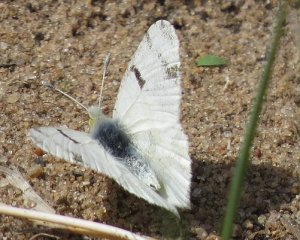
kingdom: Animalia
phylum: Arthropoda
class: Insecta
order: Lepidoptera
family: Pieridae
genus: Euchloe
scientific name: Euchloe olympia
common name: Olympia Marble
